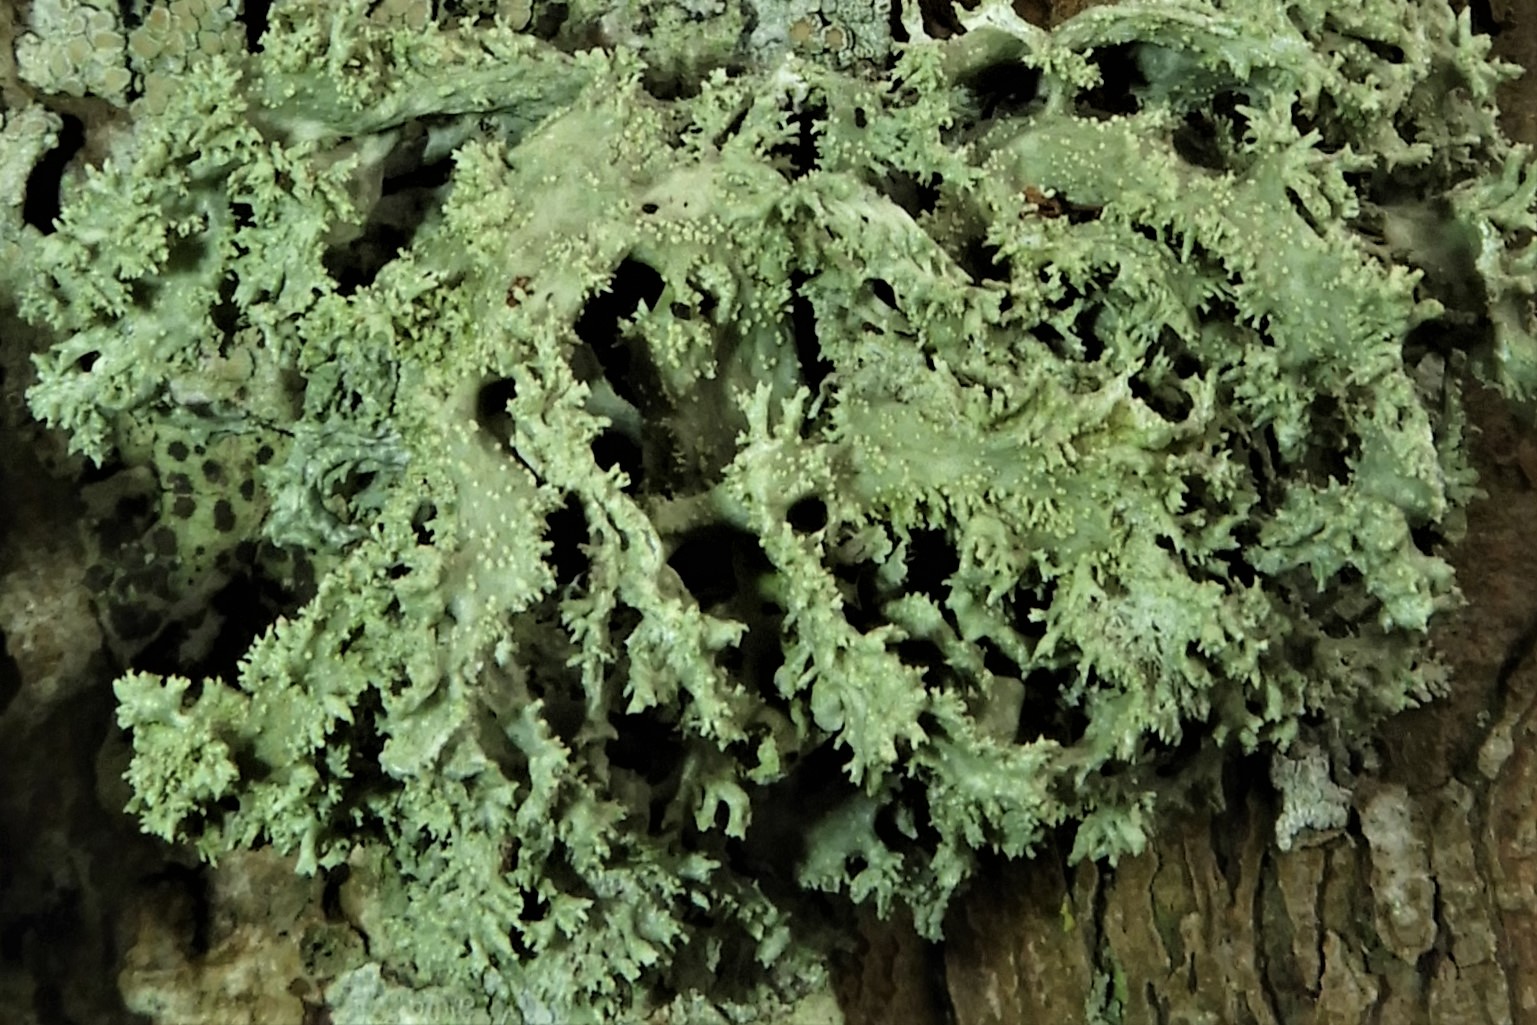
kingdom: Fungi
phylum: Ascomycota
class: Lecanoromycetes
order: Lecanorales
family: Parmeliaceae
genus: Pseudevernia
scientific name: Pseudevernia furfuracea
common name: grå fyrrelav
